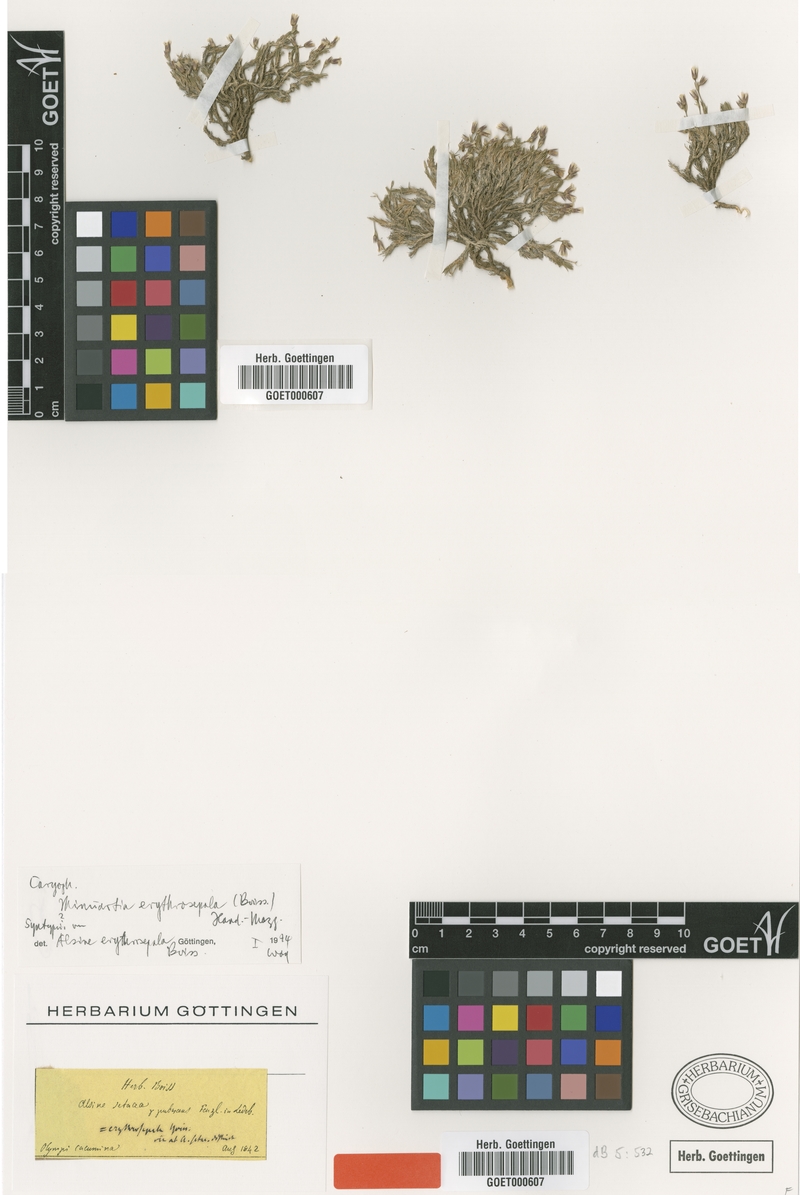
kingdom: Plantae
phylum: Tracheophyta
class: Magnoliopsida
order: Caryophyllales
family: Caryophyllaceae
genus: Minuartia
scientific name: Minuartia erythrosepala
